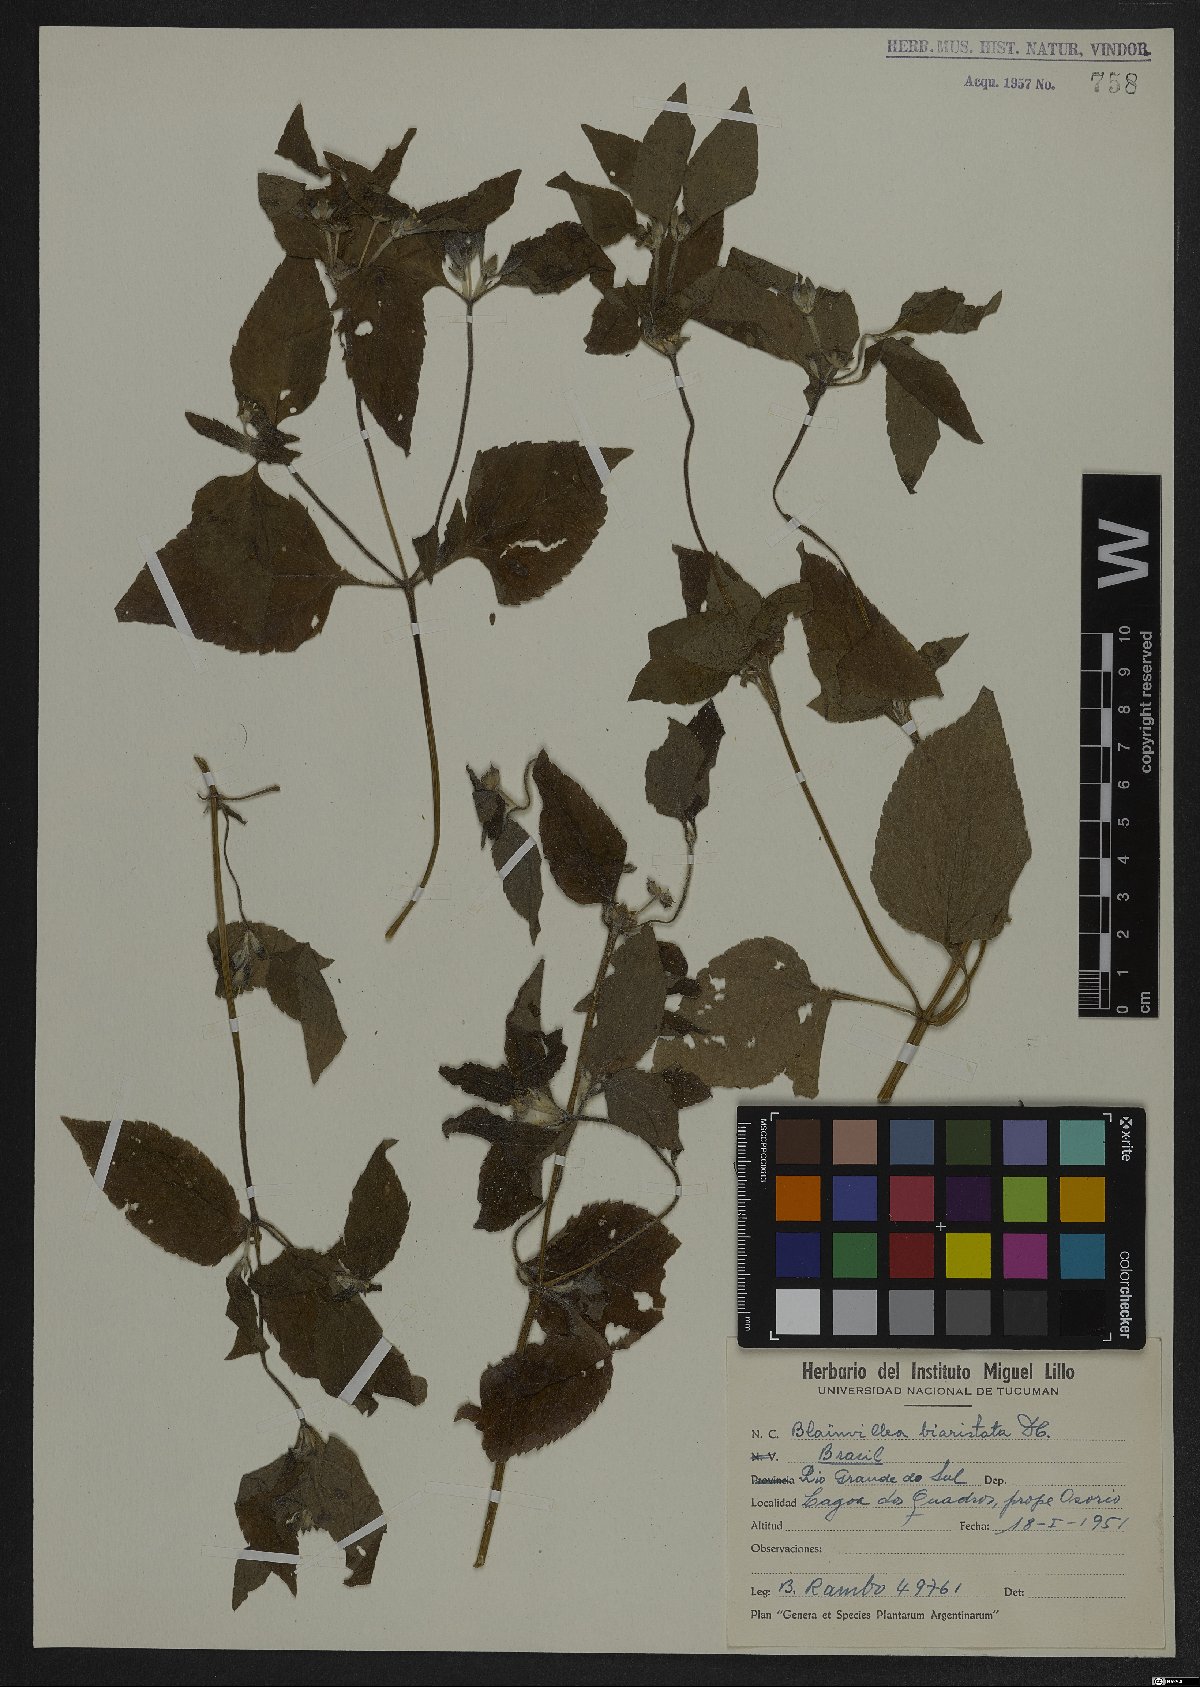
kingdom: Plantae
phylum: Tracheophyta
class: Magnoliopsida
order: Asterales
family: Asteraceae
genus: Calyptocarpus
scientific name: Calyptocarpus brasiliensis
